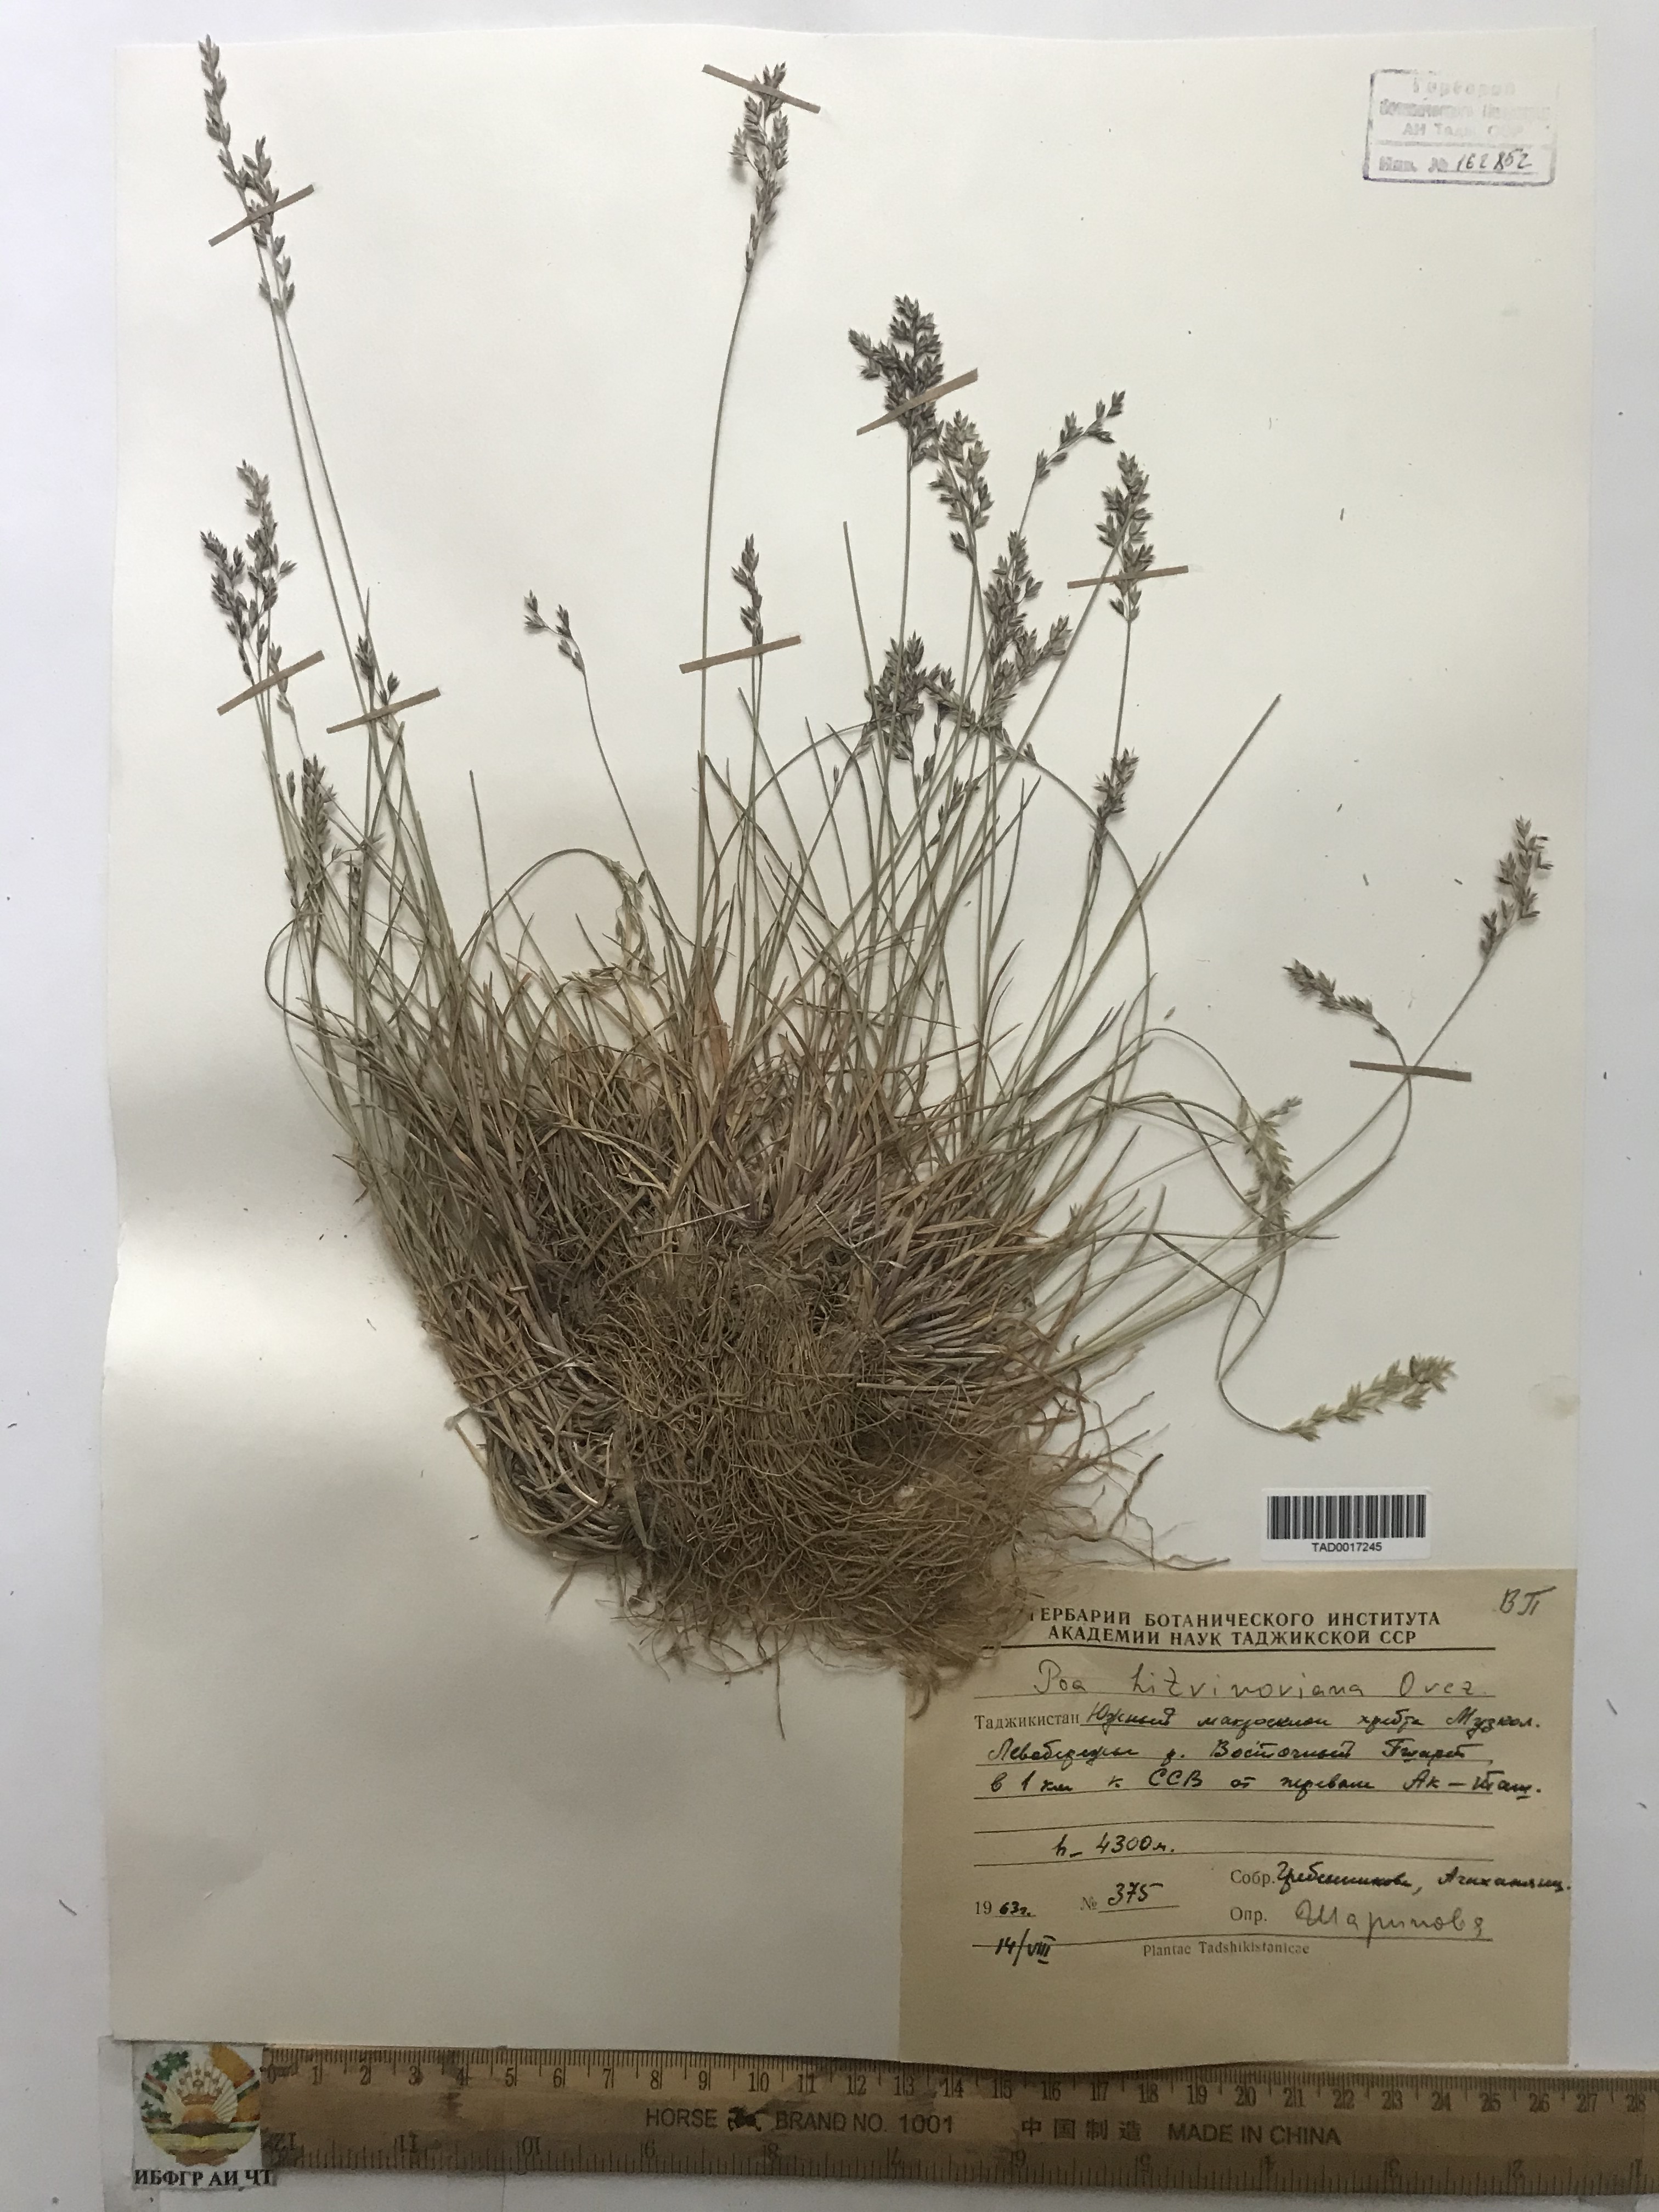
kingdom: Plantae
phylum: Tracheophyta
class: Liliopsida
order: Poales
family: Poaceae
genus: Poa
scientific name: Poa glauca
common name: Glaucous bluegrass
